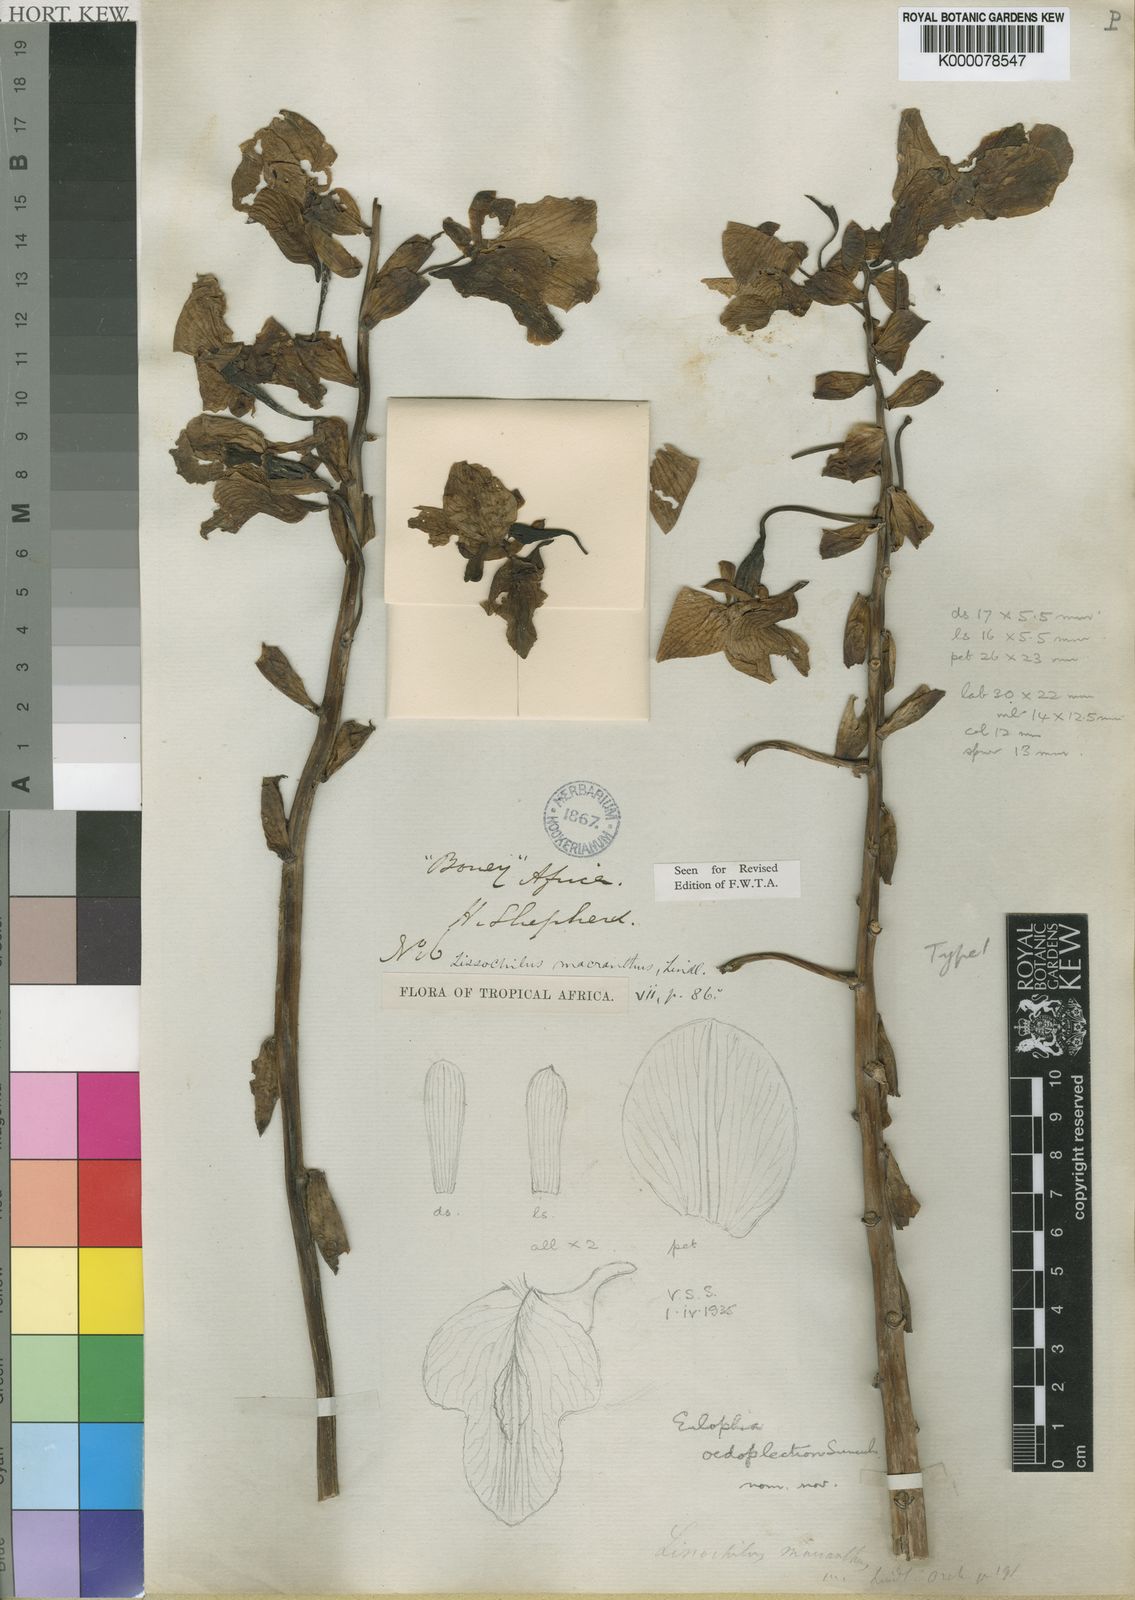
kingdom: Plantae
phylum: Tracheophyta
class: Liliopsida
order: Asparagales
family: Orchidaceae
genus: Eulophia
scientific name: Eulophia bouliawongo
